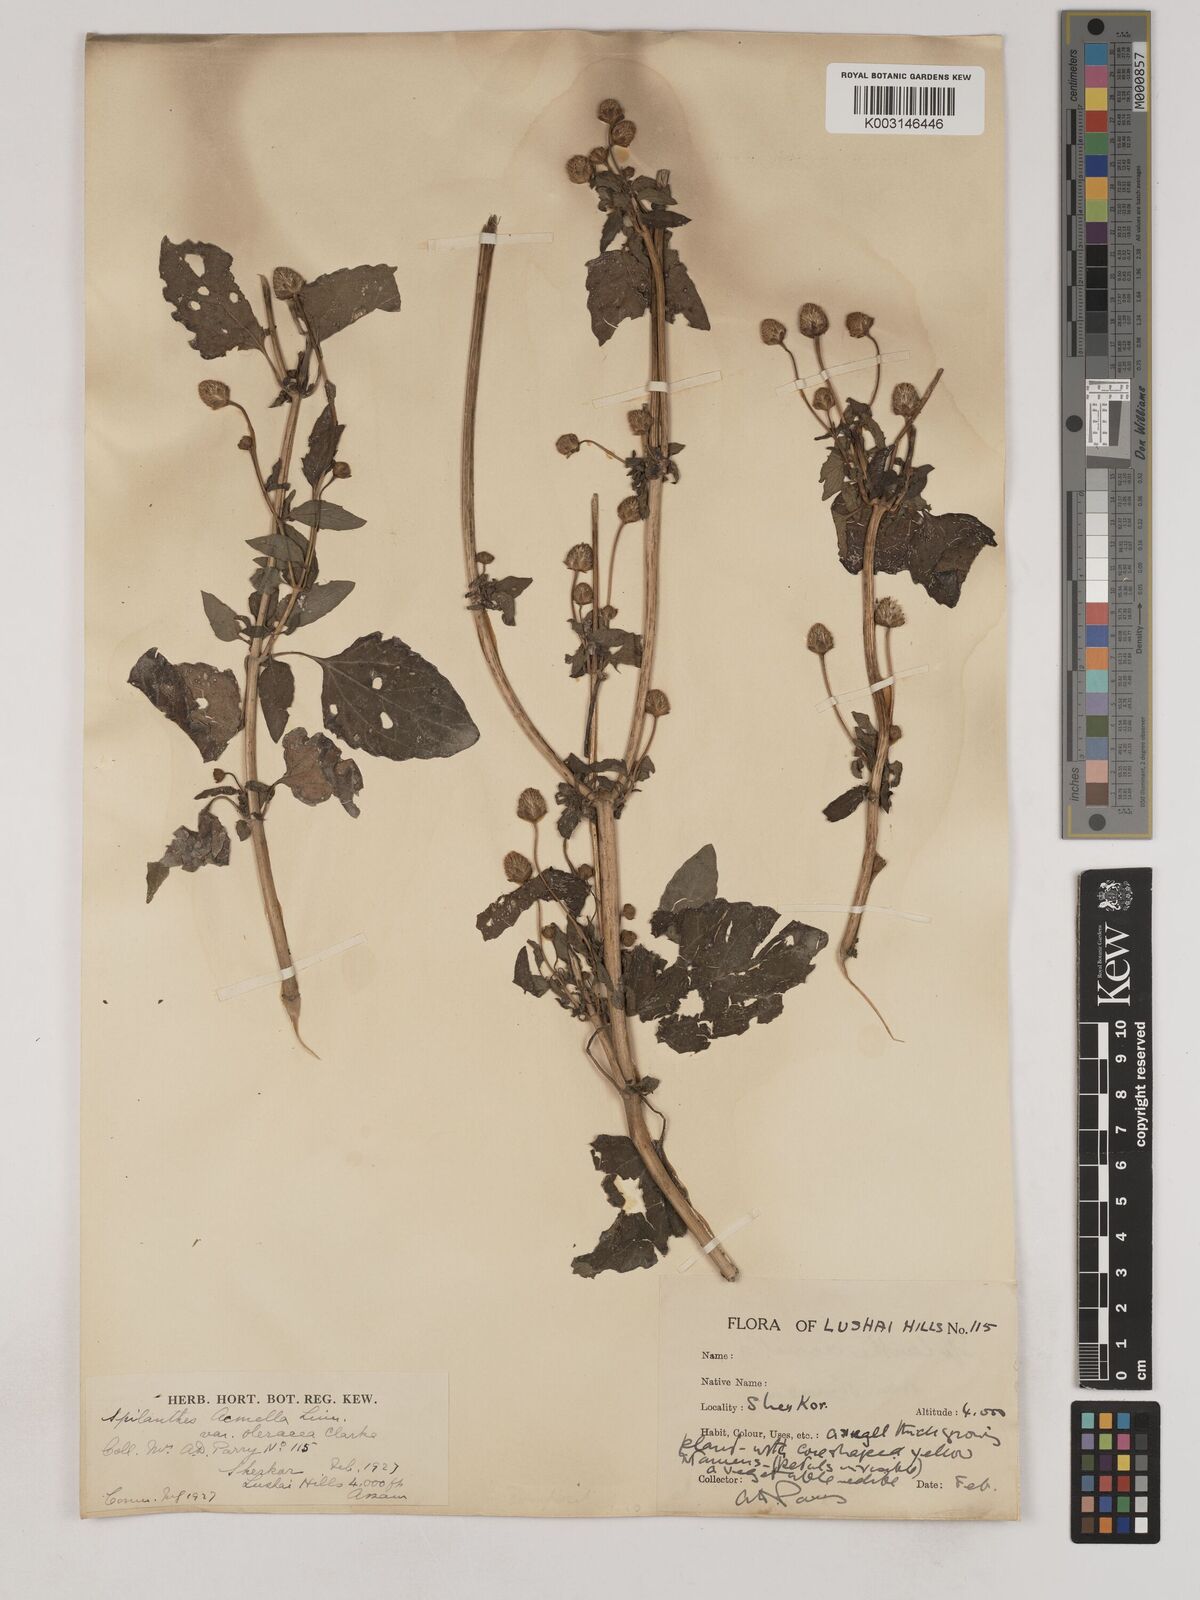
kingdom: Plantae
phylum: Tracheophyta
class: Magnoliopsida
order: Asterales
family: Asteraceae
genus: Acmella
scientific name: Acmella oleracea
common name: Brazilian cress
